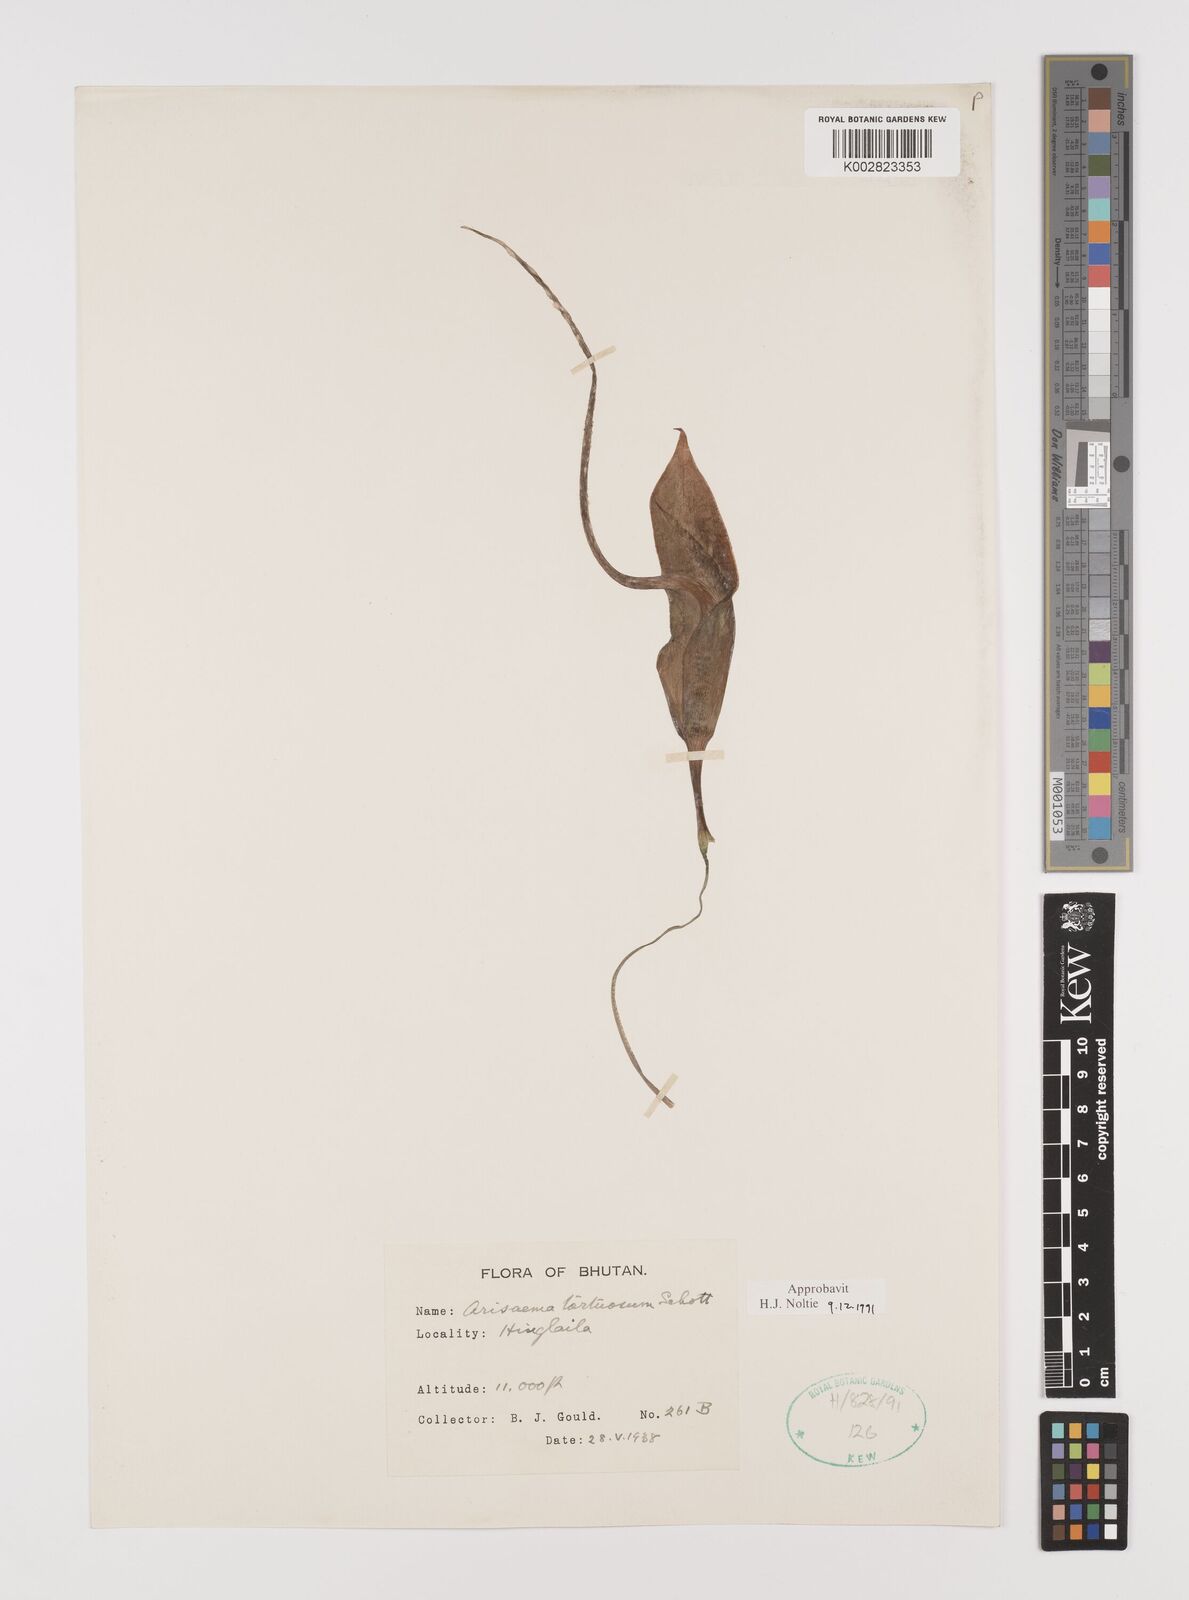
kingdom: Plantae
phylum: Tracheophyta
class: Liliopsida
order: Alismatales
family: Araceae
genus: Arisaema
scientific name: Arisaema tortuosum
